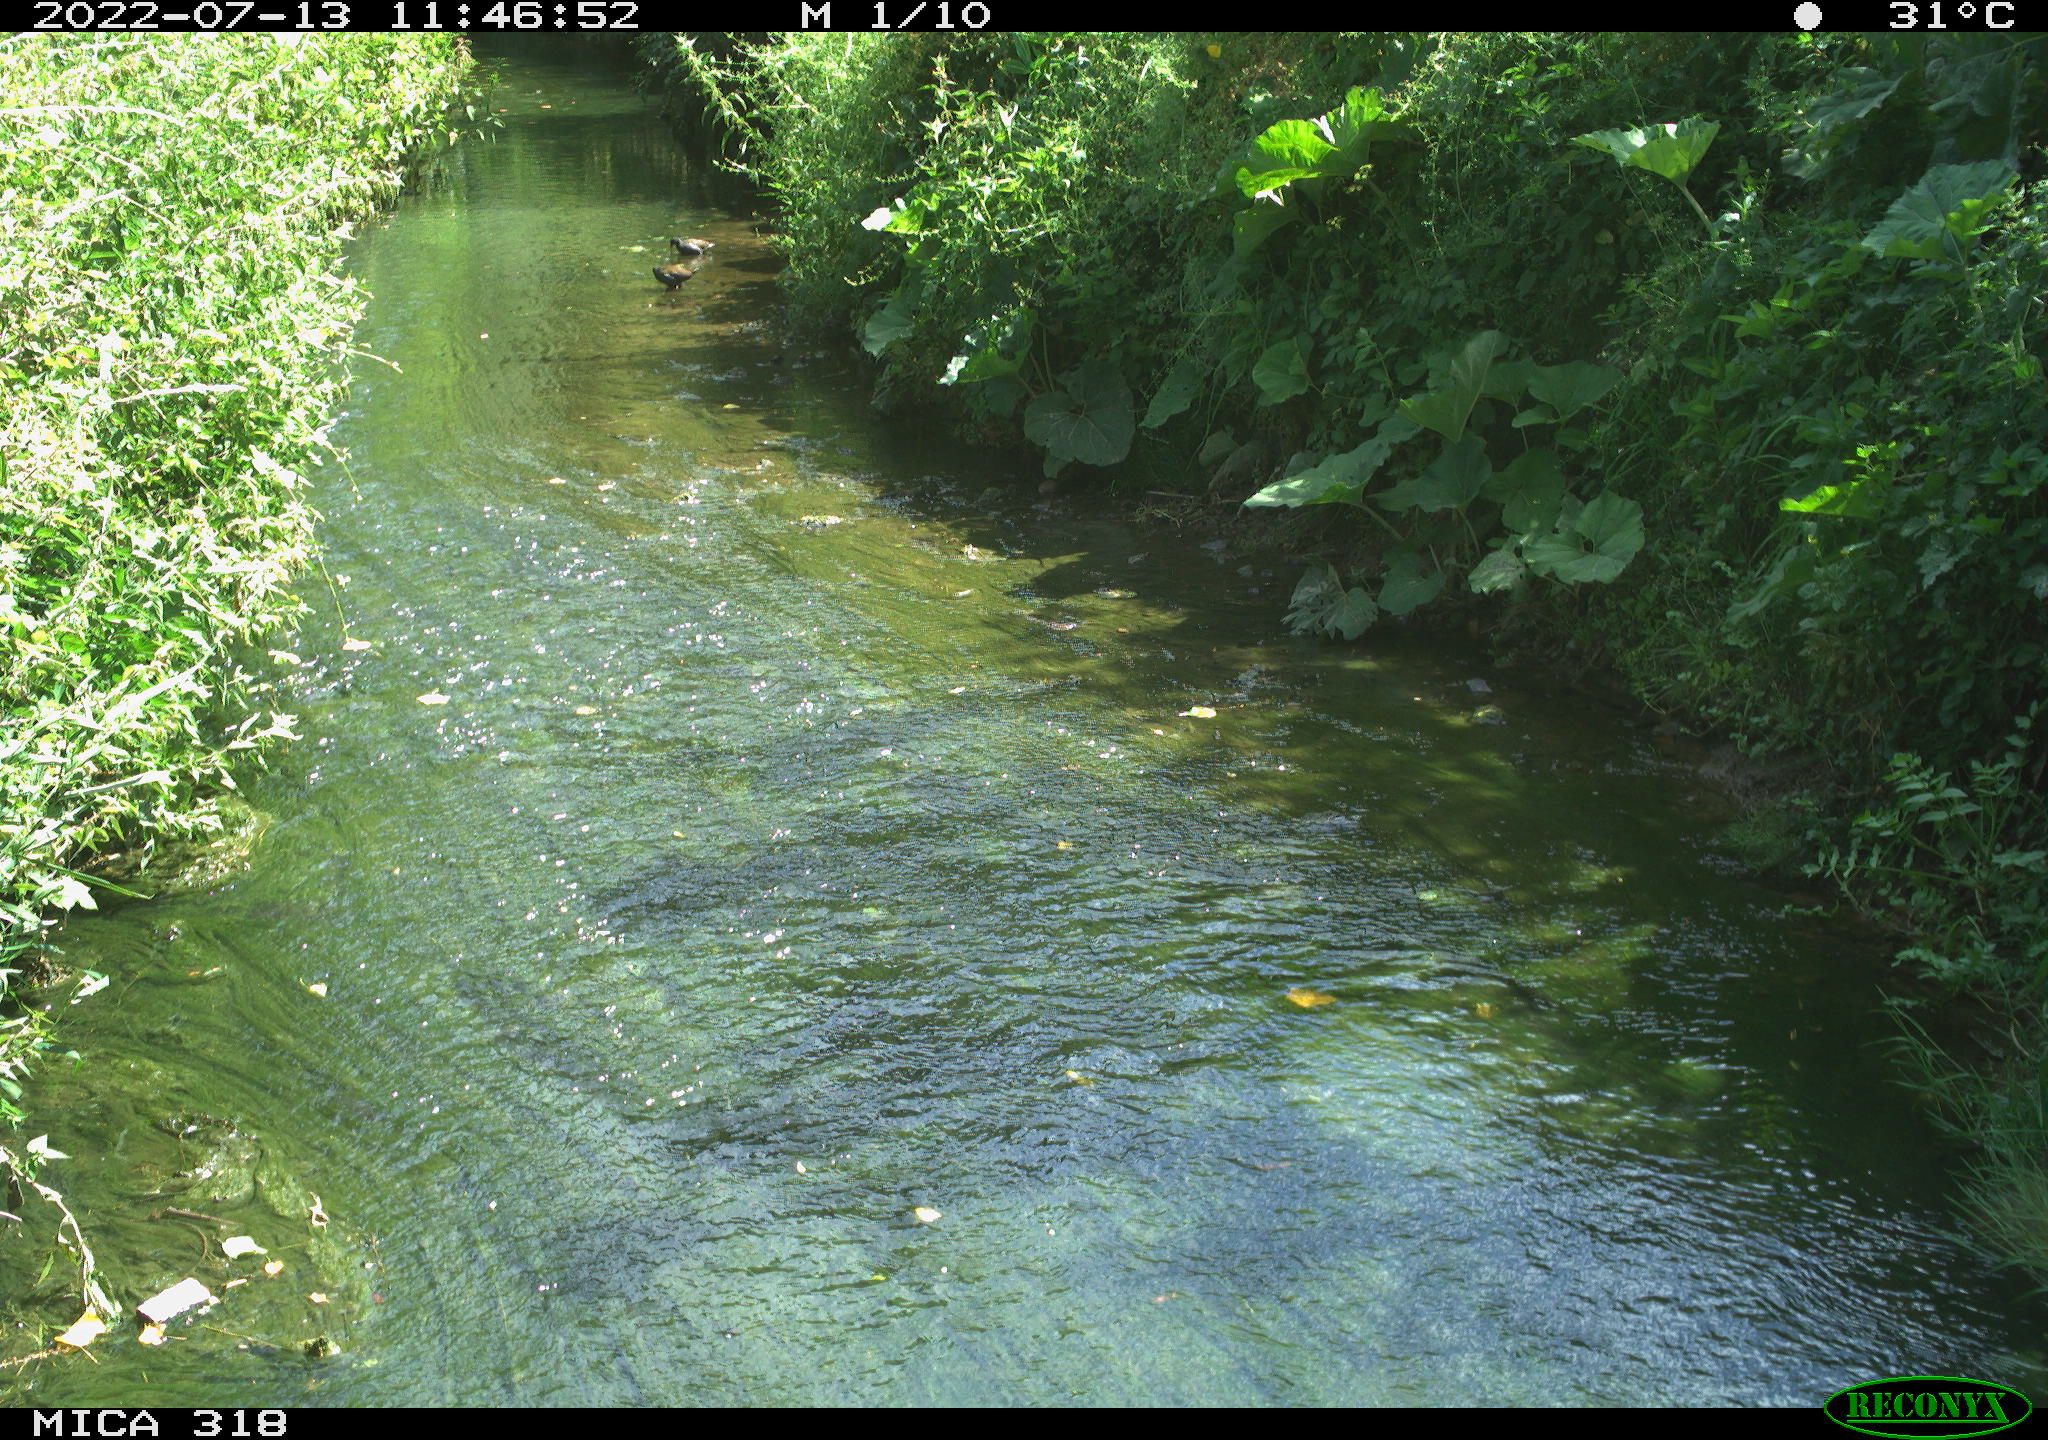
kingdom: Animalia
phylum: Chordata
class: Aves
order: Gruiformes
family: Rallidae
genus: Gallinula
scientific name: Gallinula chloropus
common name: Common moorhen
